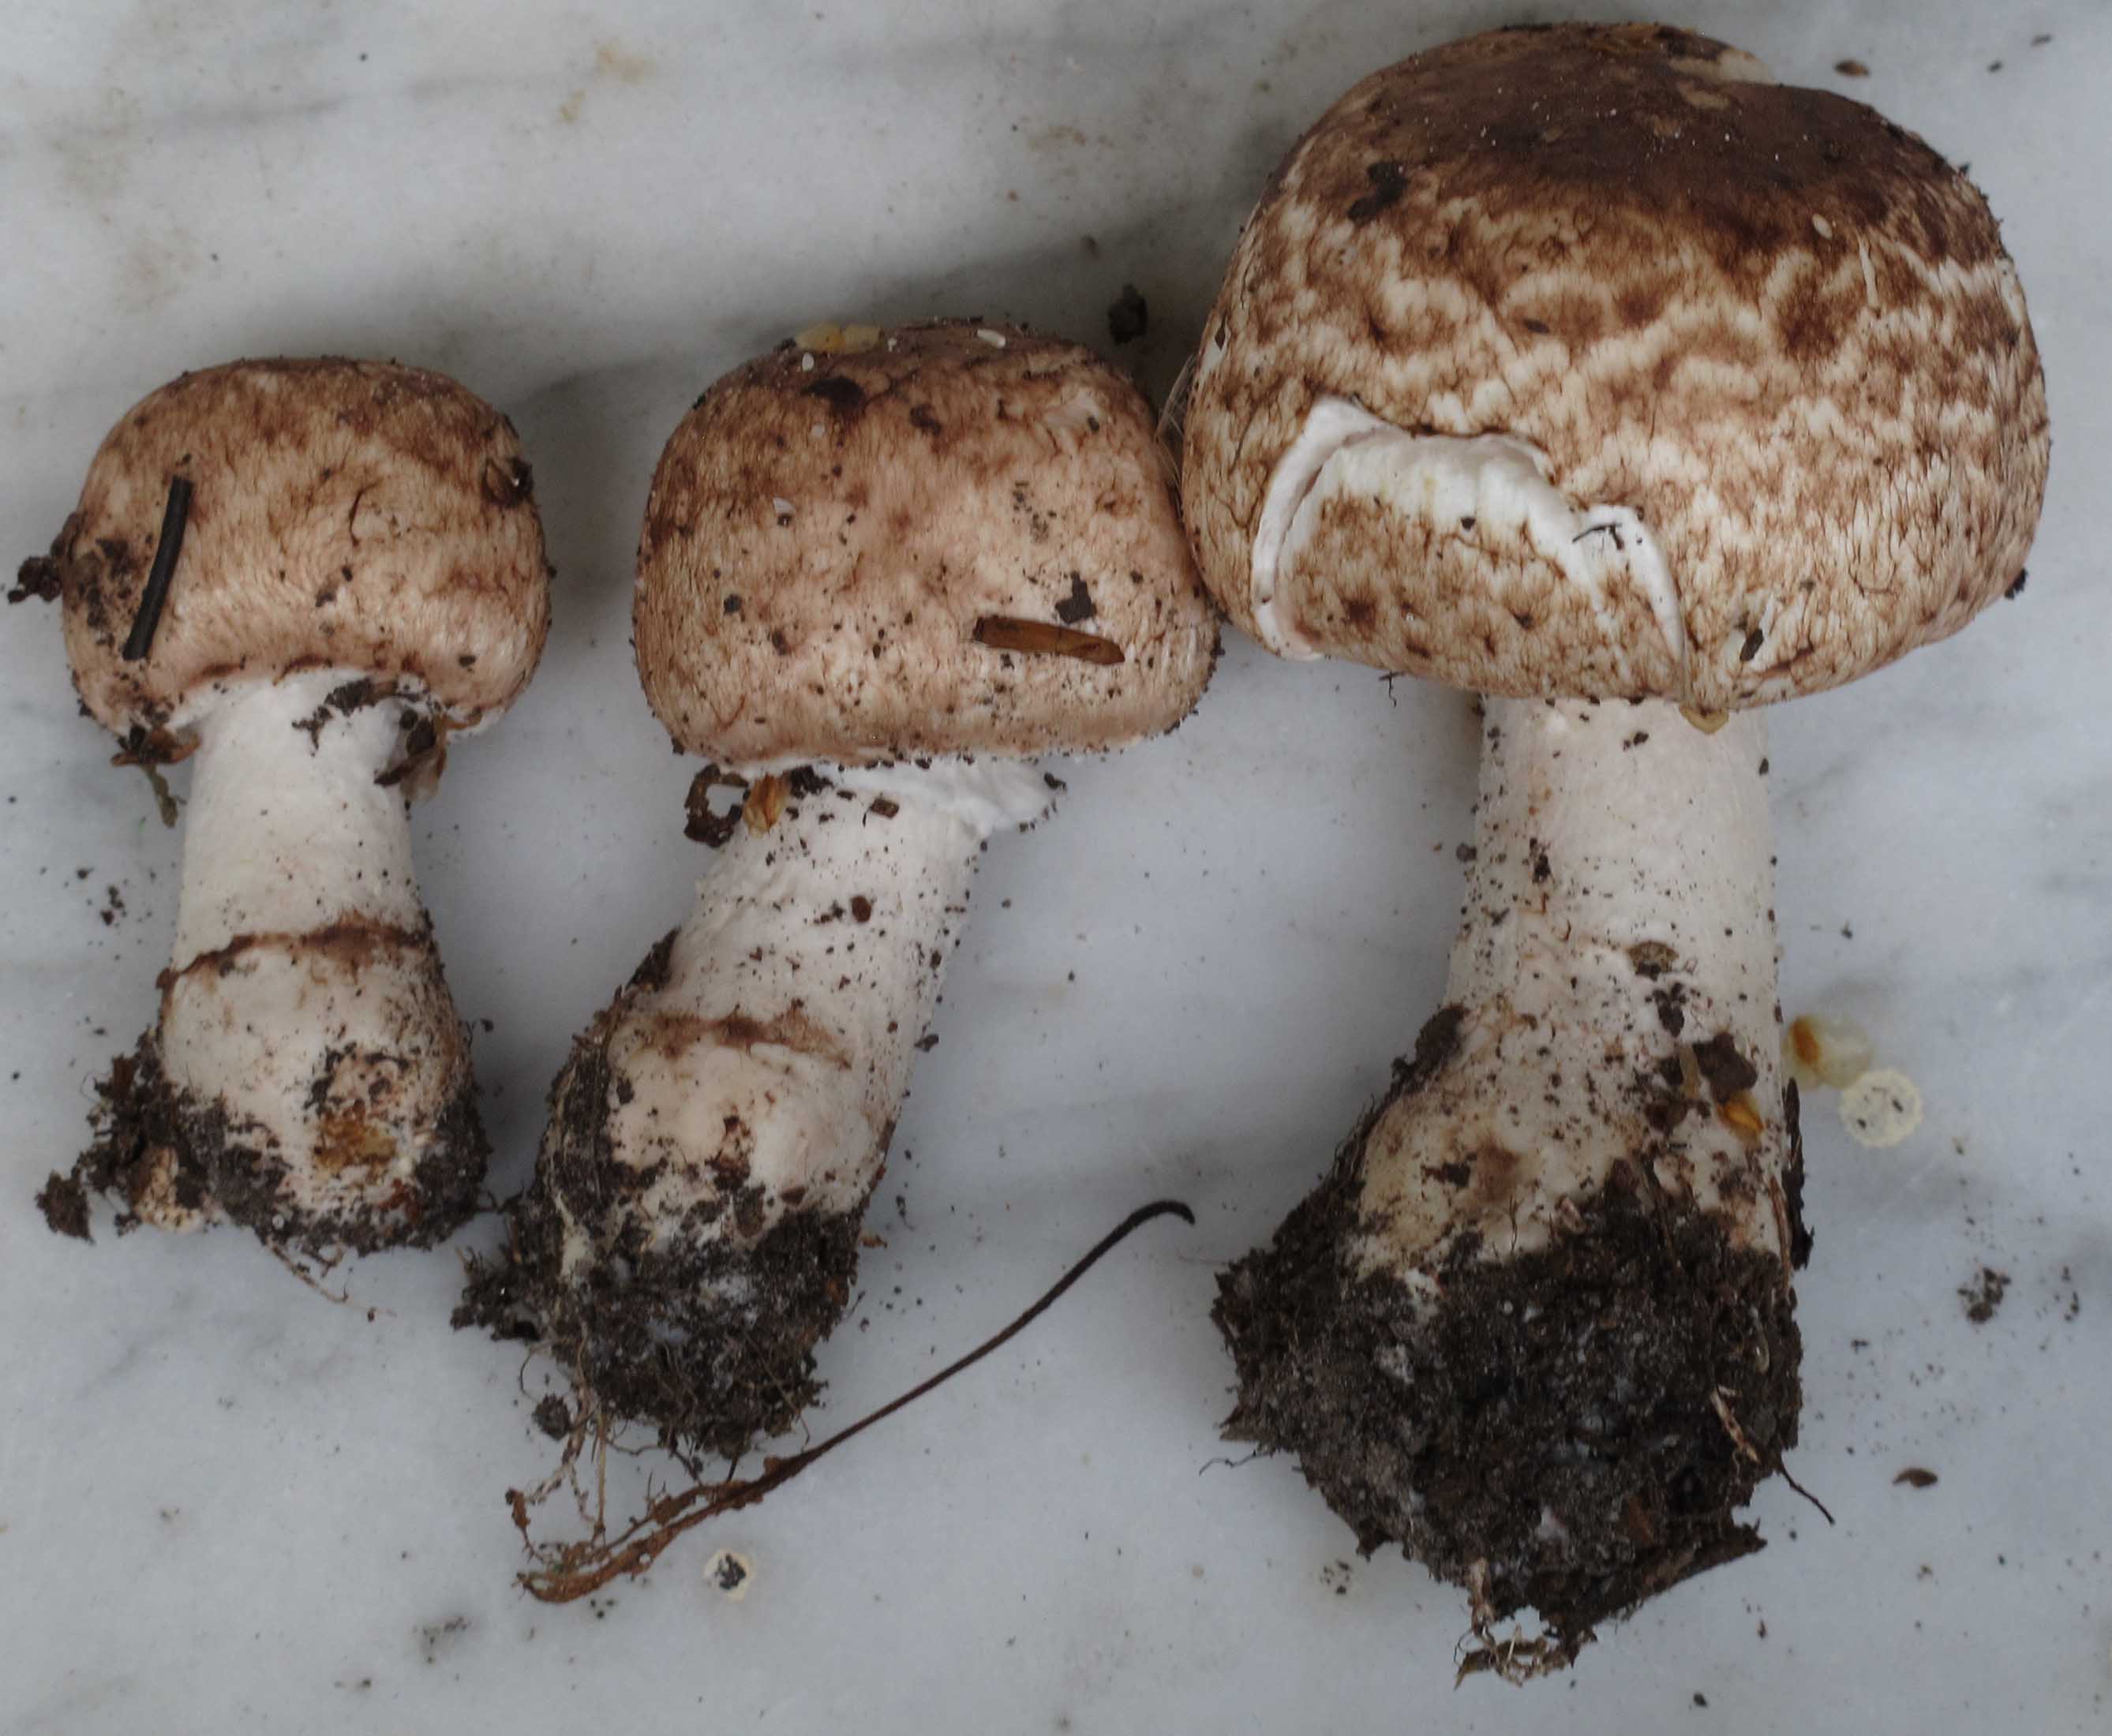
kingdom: Fungi
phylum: Basidiomycota
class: Agaricomycetes
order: Agaricales
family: Agaricaceae
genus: Agaricus
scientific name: Agaricus impudicus
